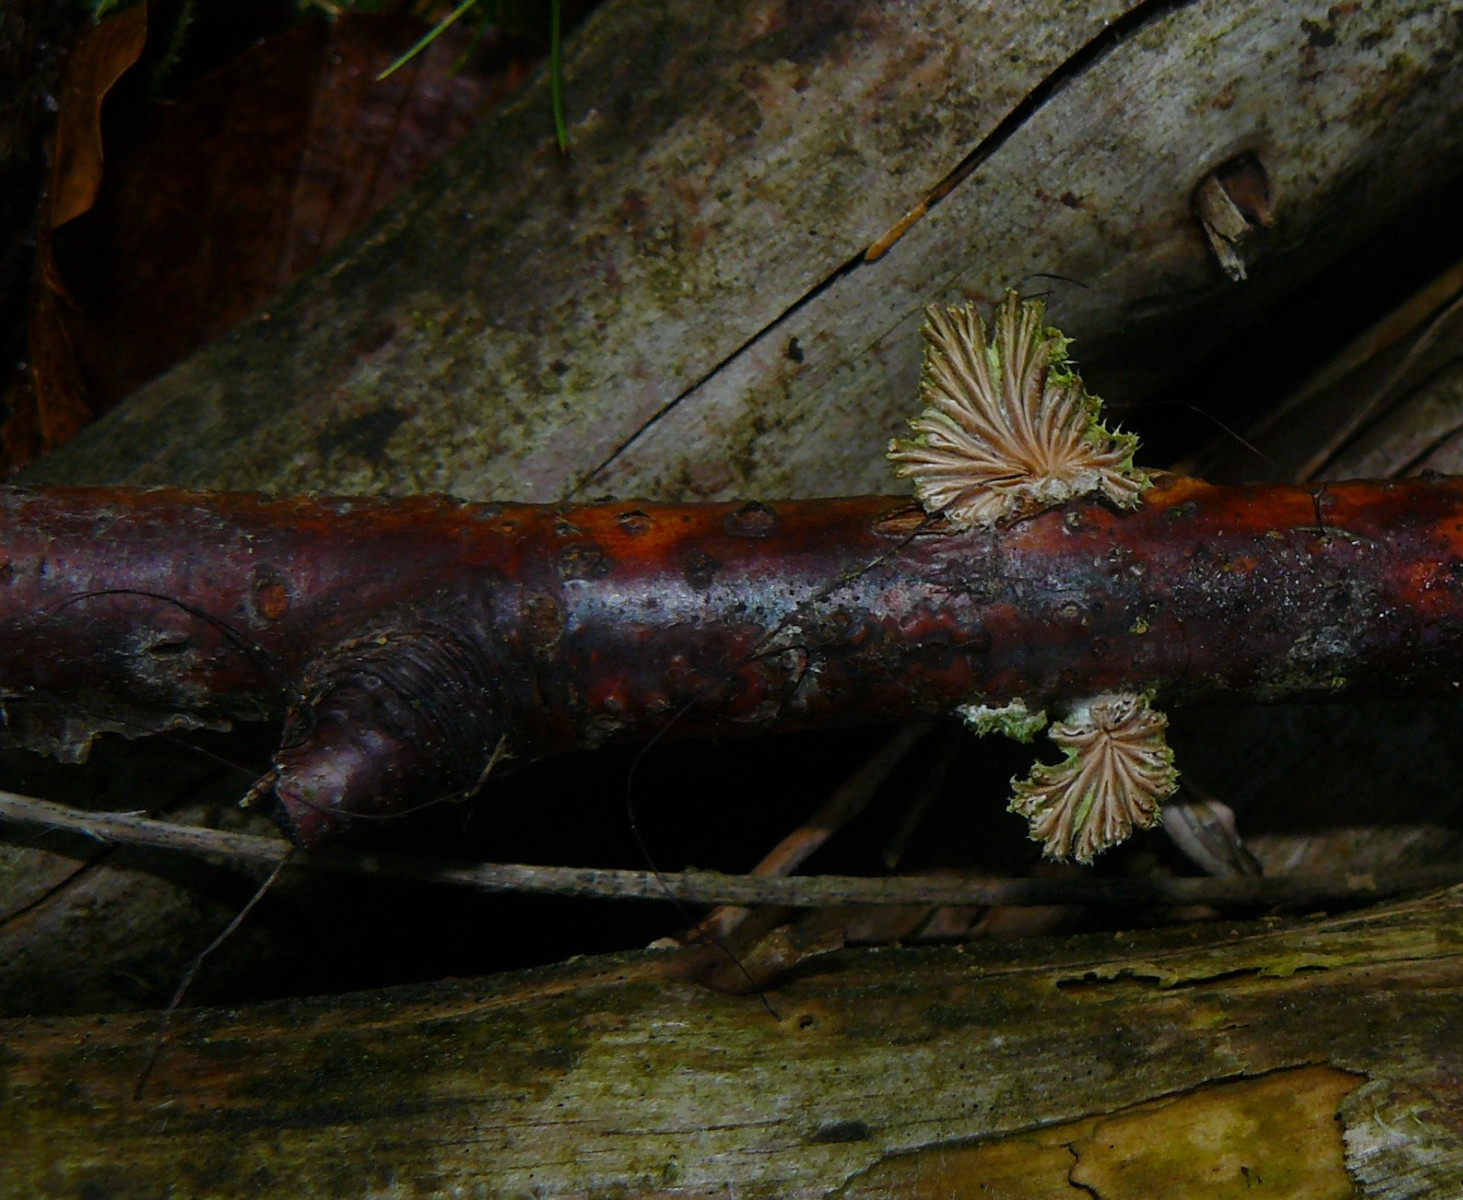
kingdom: Fungi
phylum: Basidiomycota
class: Agaricomycetes
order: Agaricales
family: Schizophyllaceae
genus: Schizophyllum
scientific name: Schizophyllum commune
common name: kløvblad
